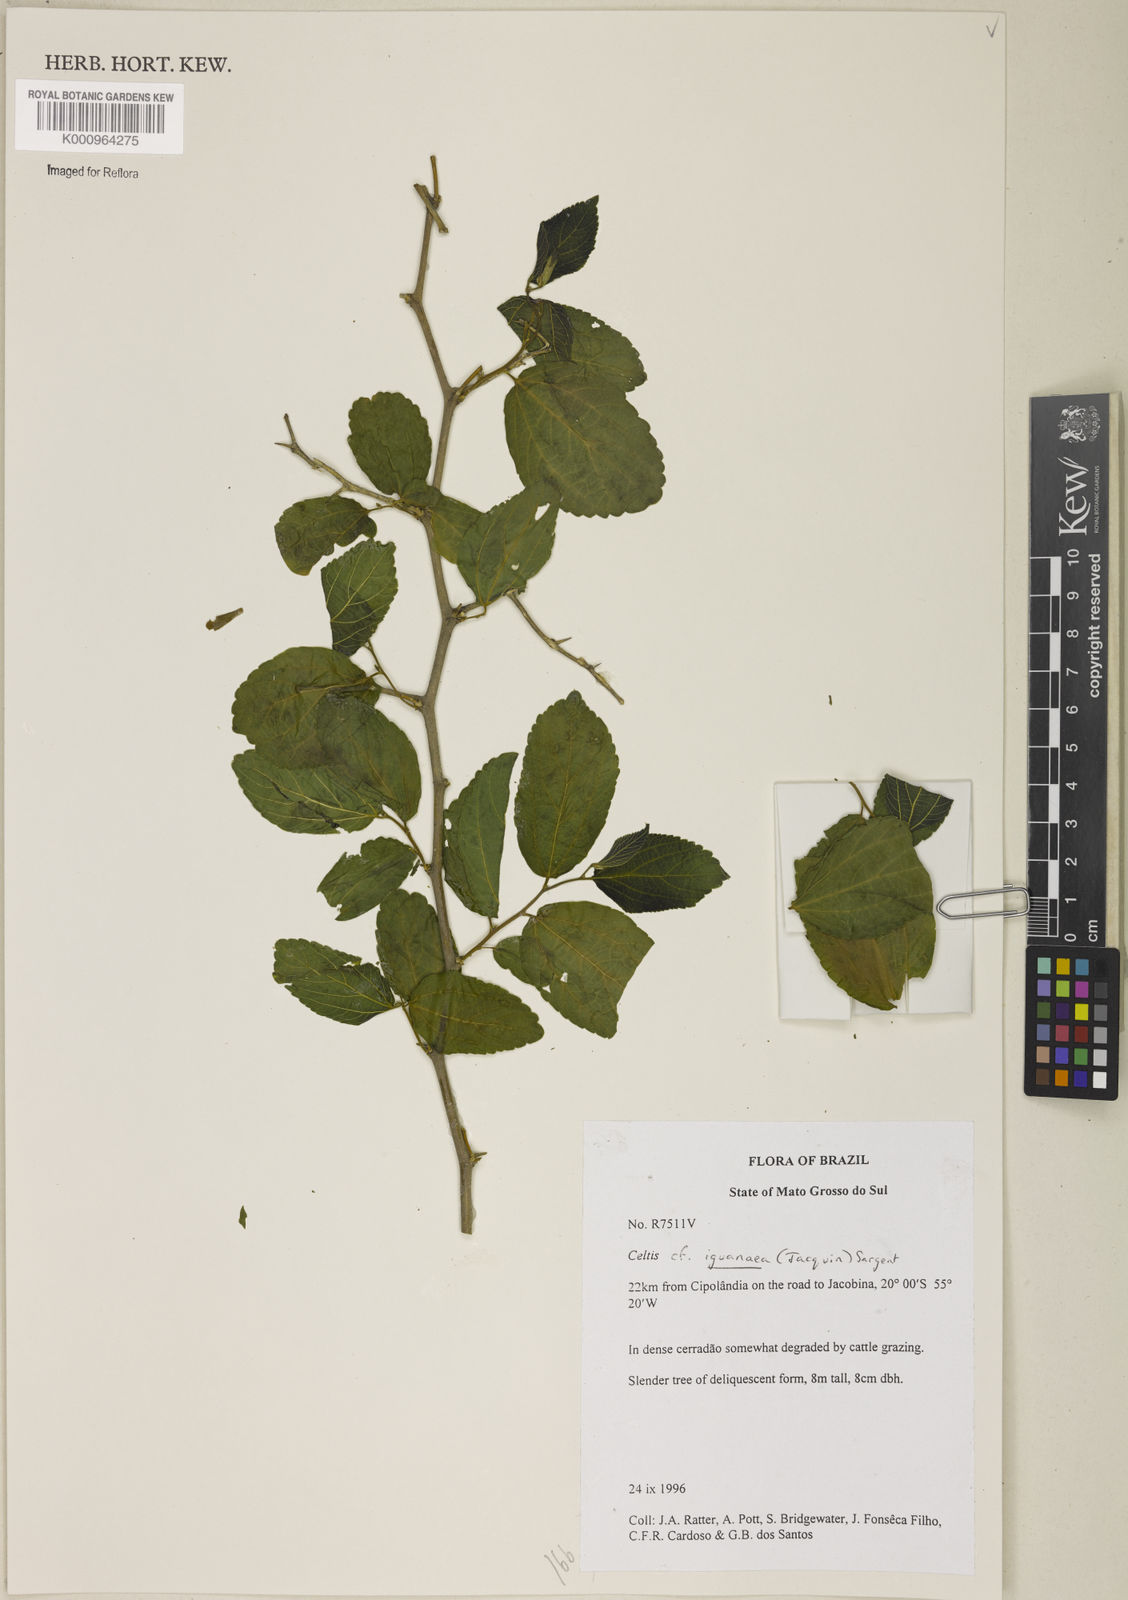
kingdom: Plantae
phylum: Tracheophyta
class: Magnoliopsida
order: Rosales
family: Cannabaceae
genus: Celtis
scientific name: Celtis iguanaea
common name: Iguana hackberry
